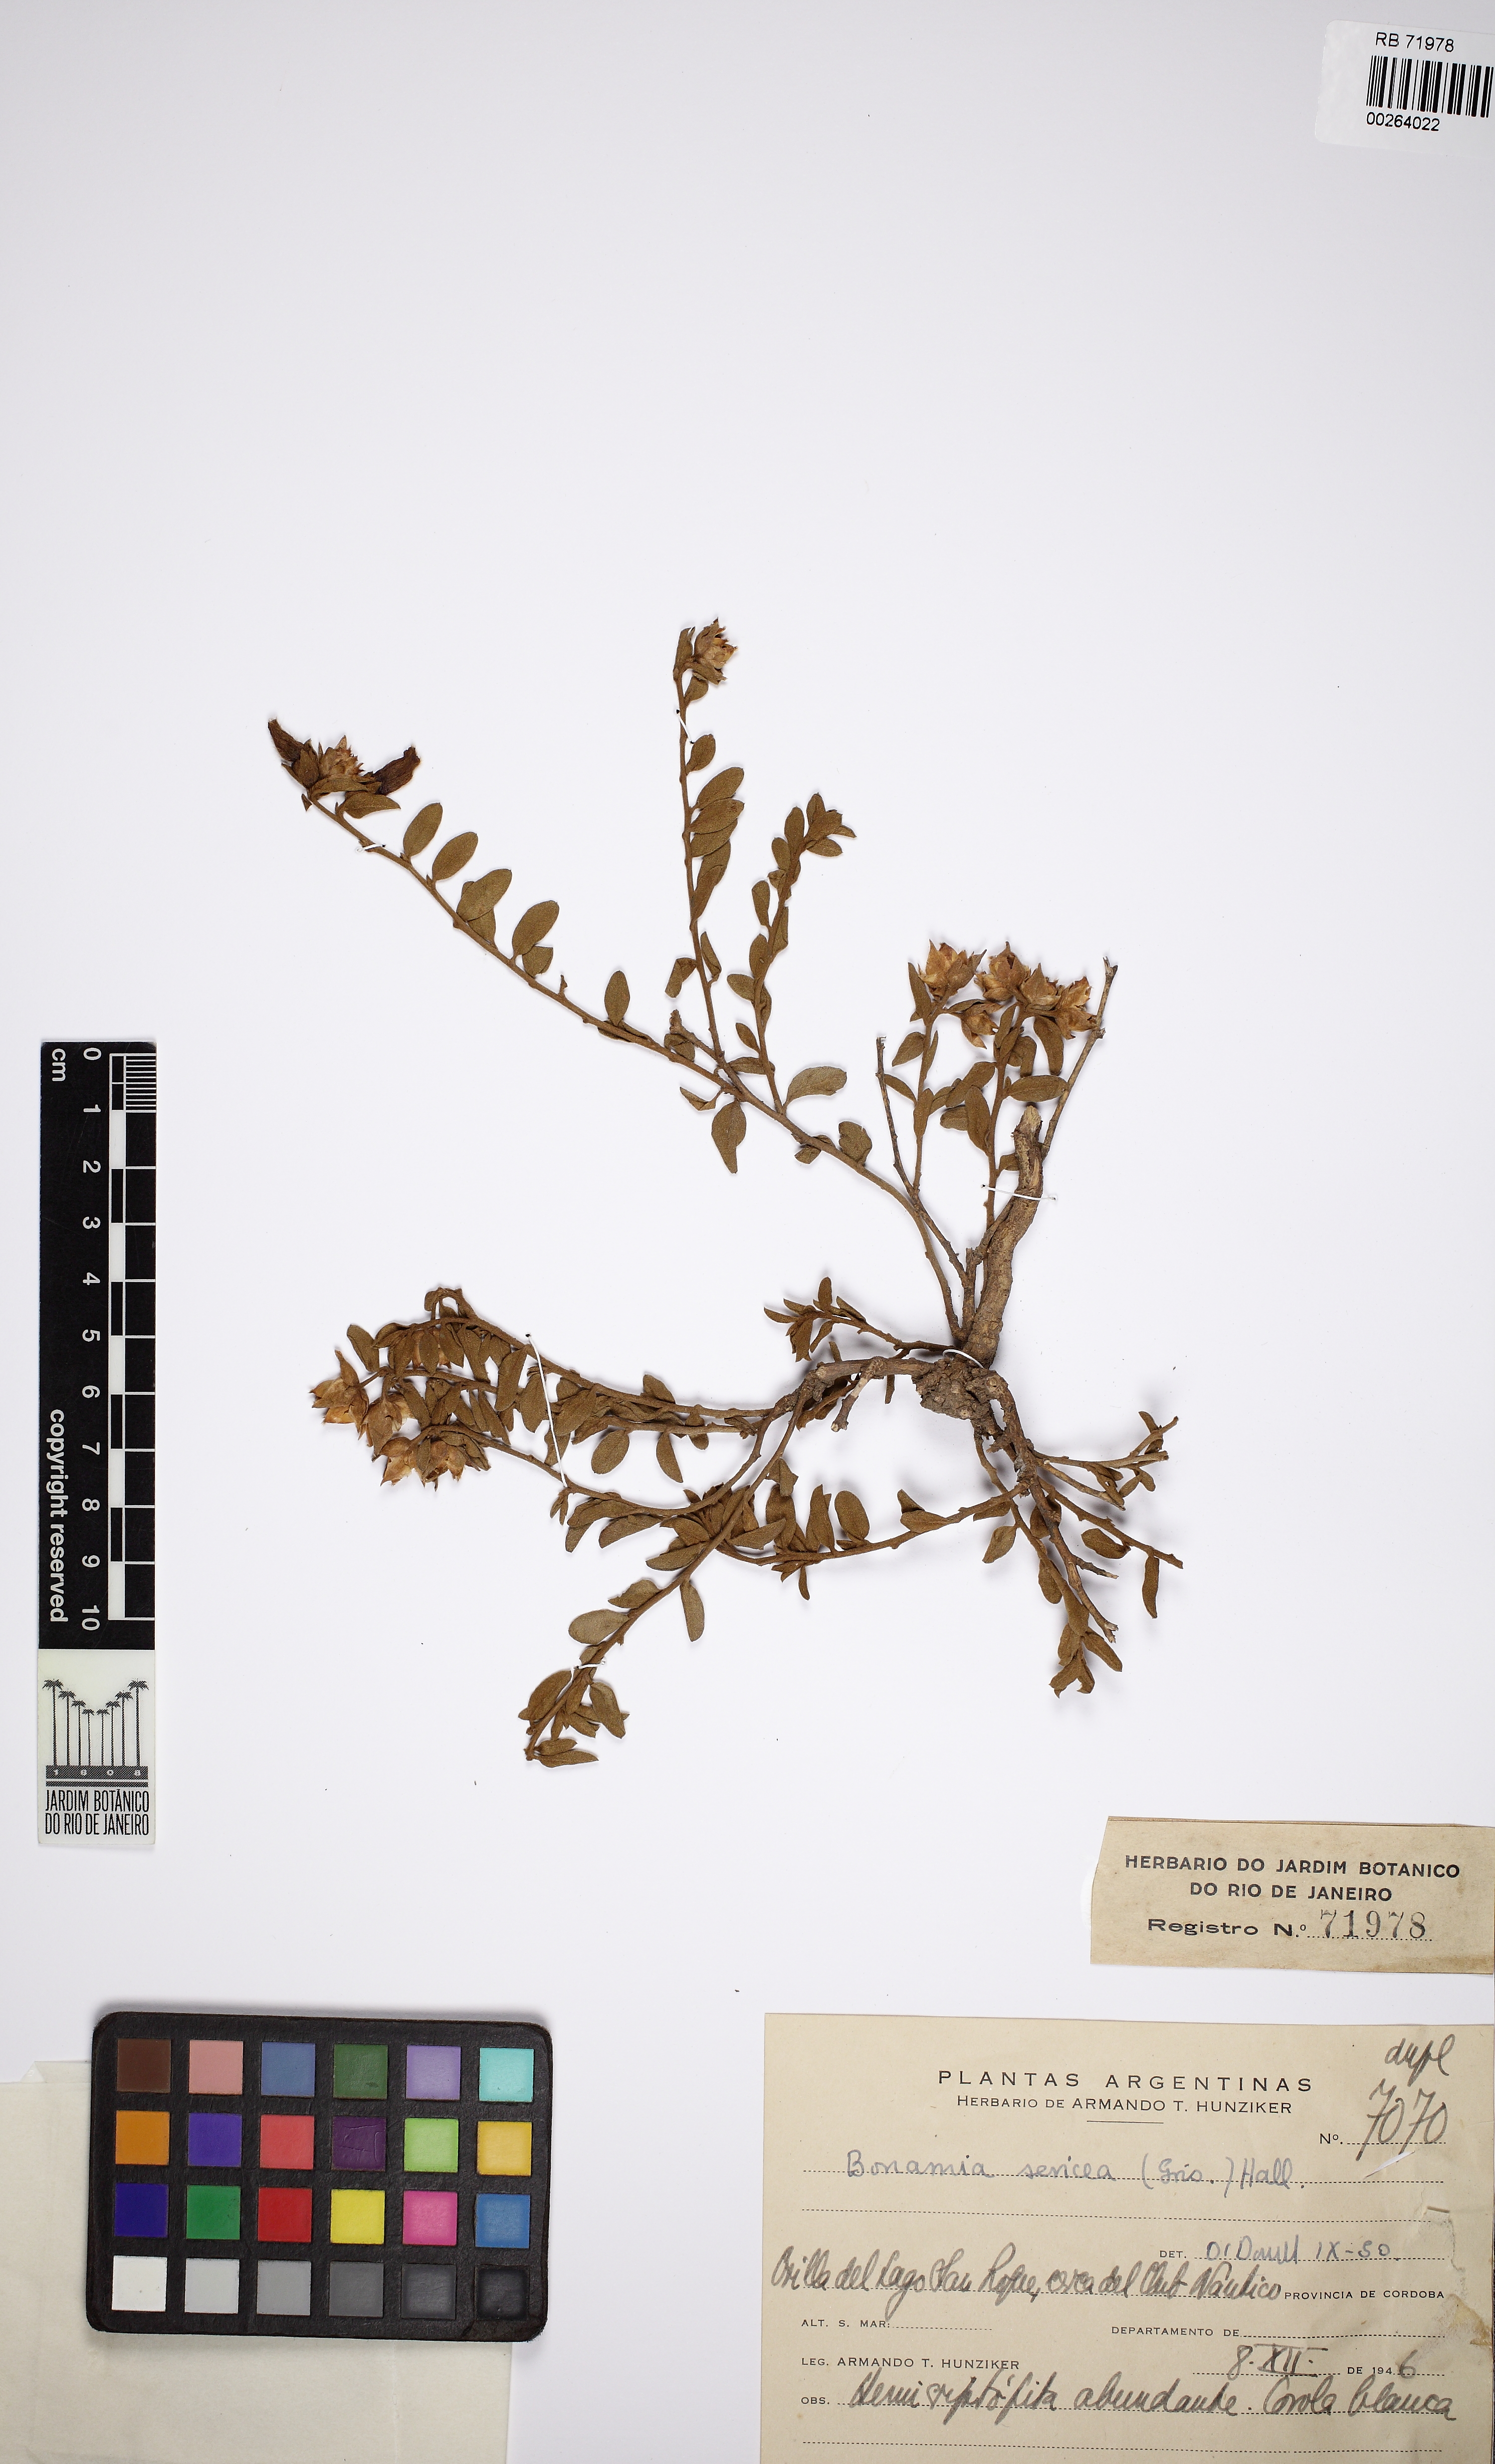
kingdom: Plantae
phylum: Tracheophyta
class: Magnoliopsida
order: Solanales
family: Convolvulaceae
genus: Bonamia
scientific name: Bonamia sericea
